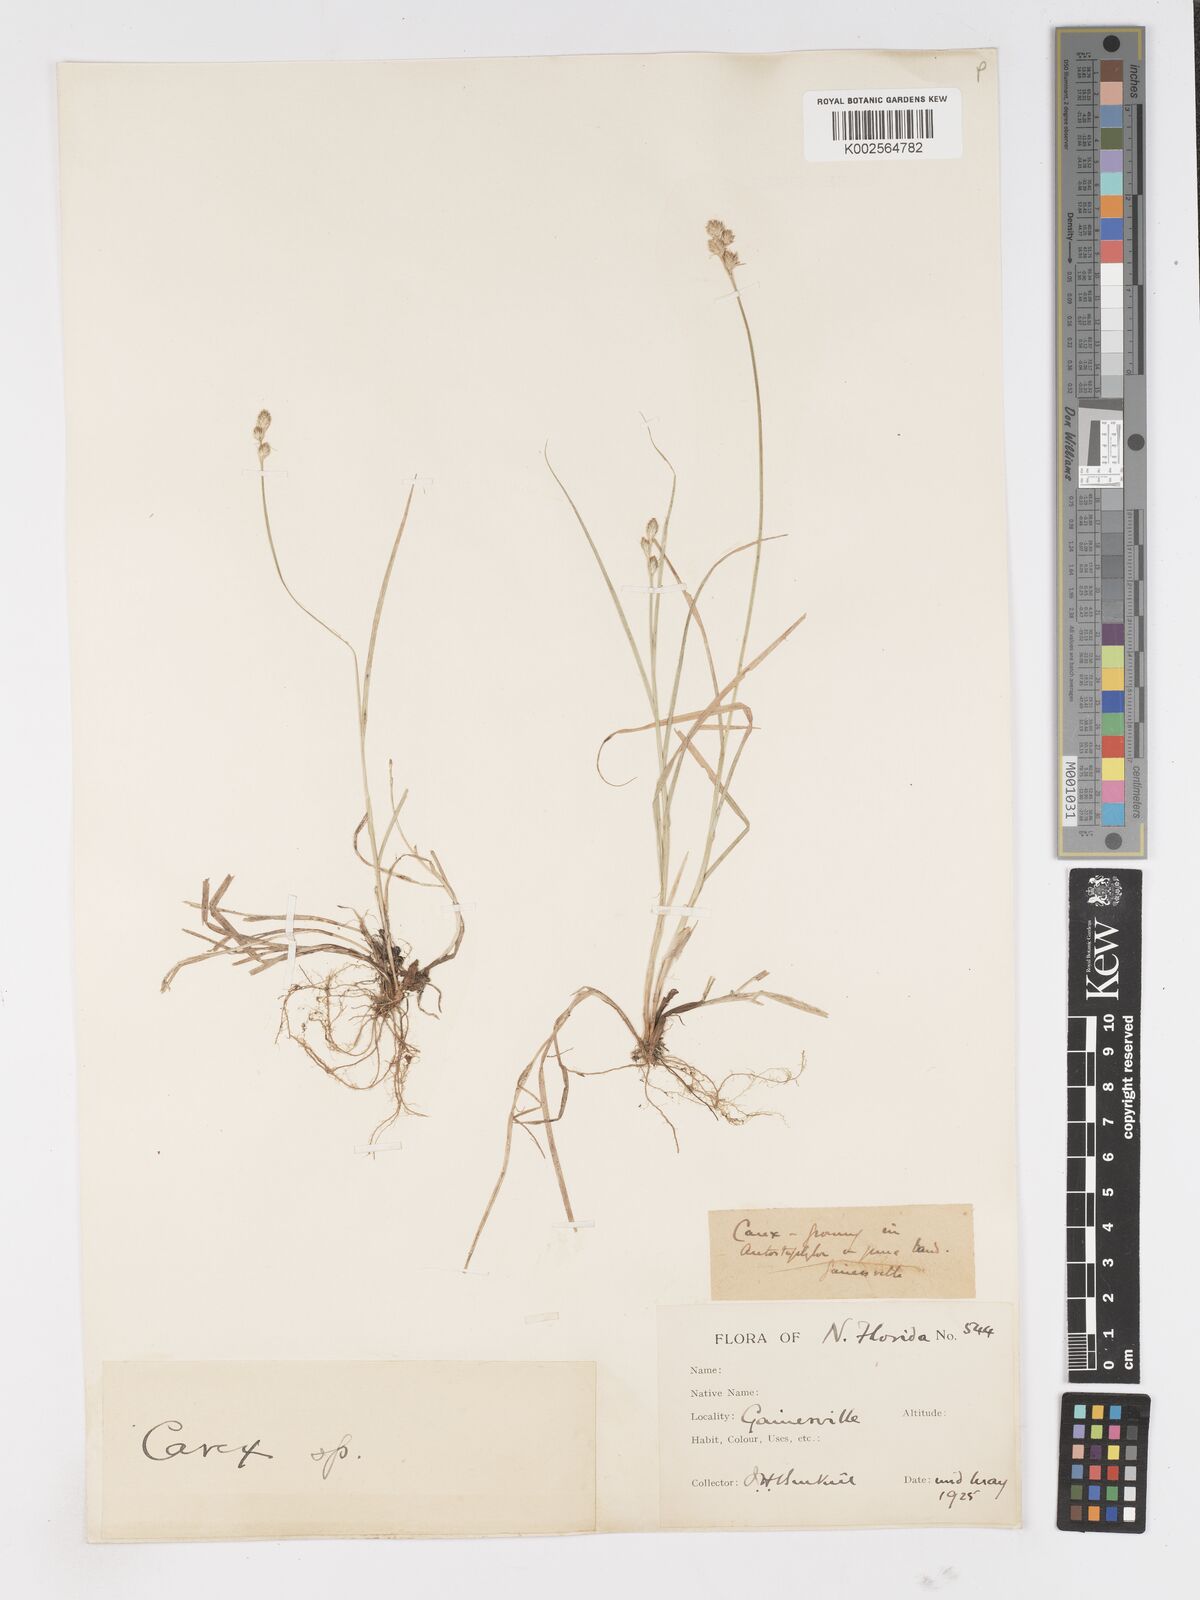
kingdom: Plantae
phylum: Tracheophyta
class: Liliopsida
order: Poales
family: Cyperaceae
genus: Carex
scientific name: Carex
